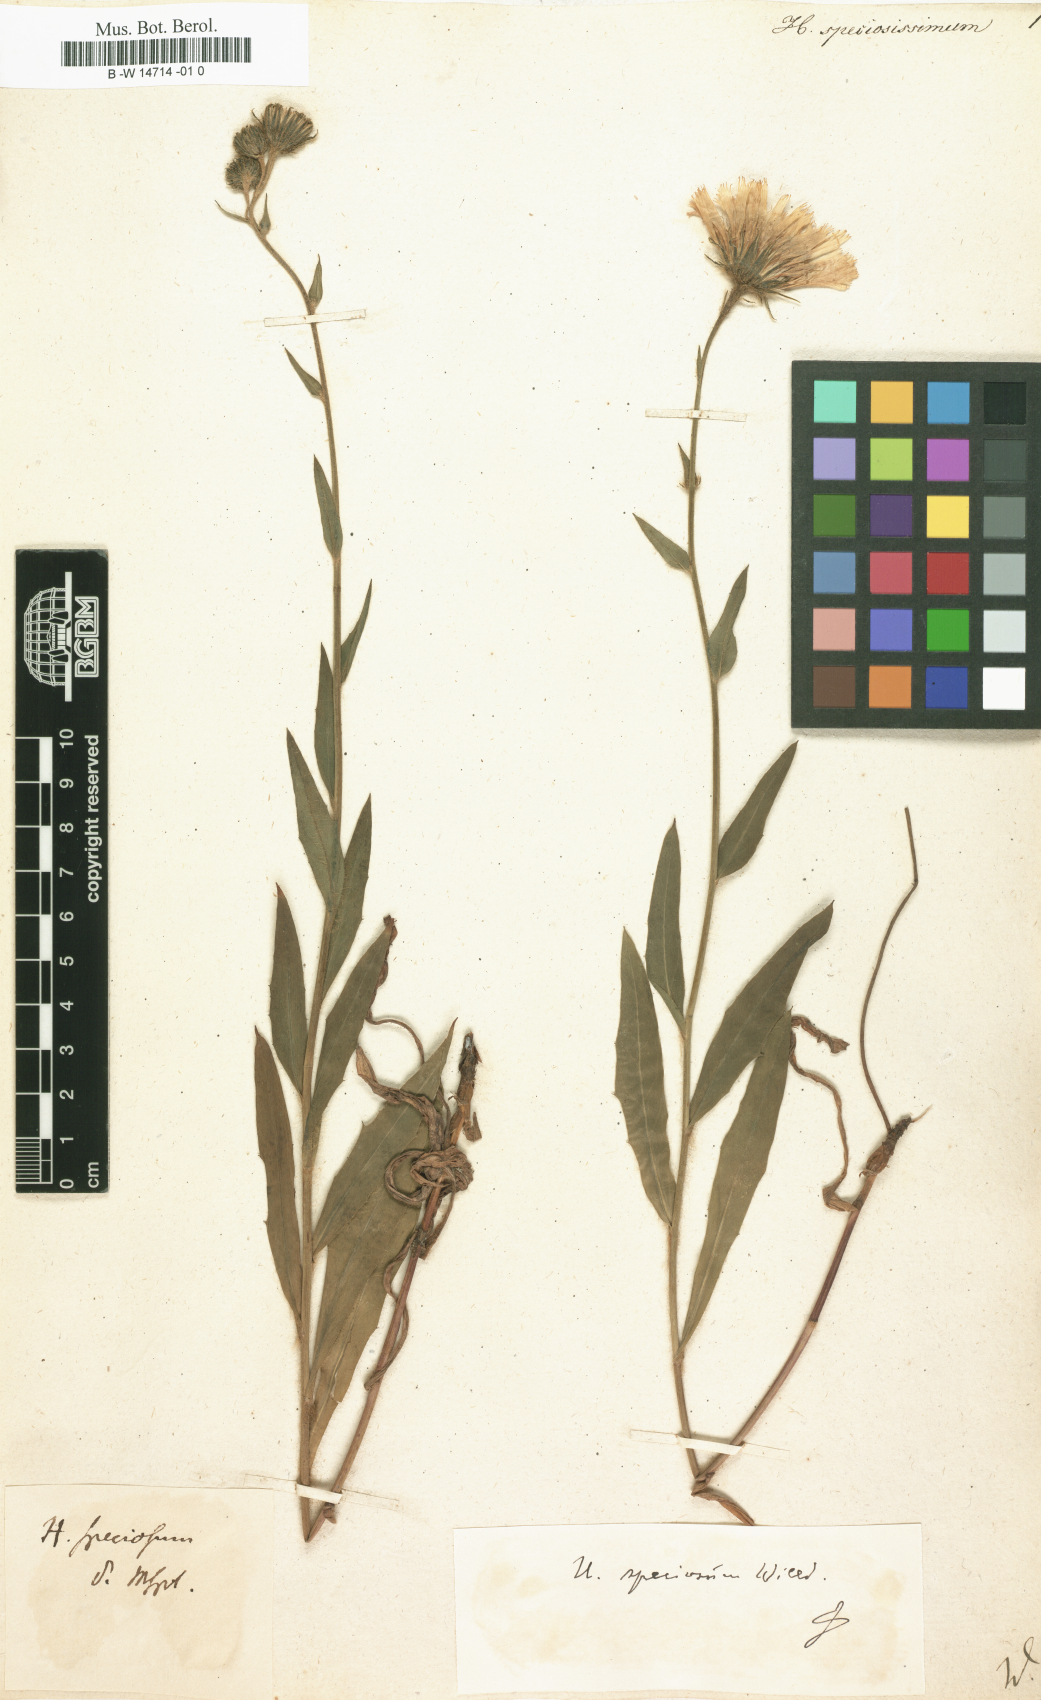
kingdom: Plantae
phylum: Tracheophyta
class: Magnoliopsida
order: Asterales
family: Asteraceae
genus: Hieracium
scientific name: Hieracium speciosum
